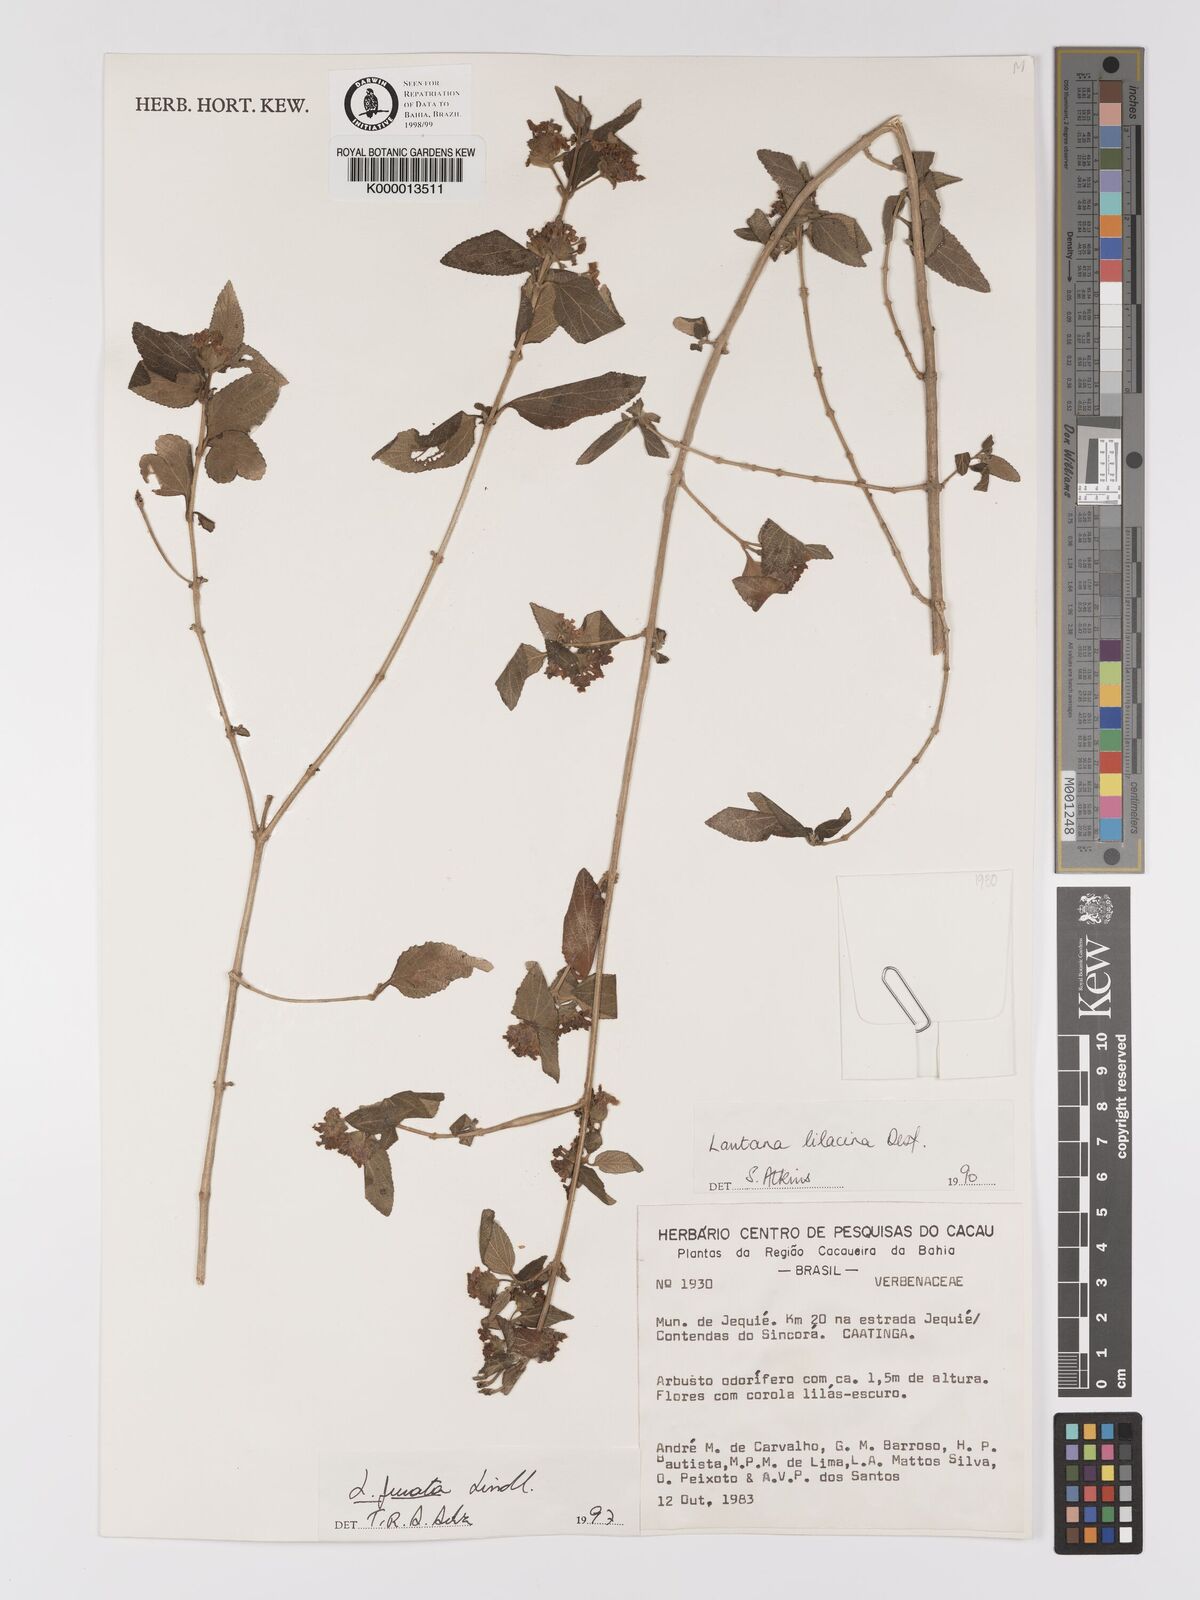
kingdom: Plantae
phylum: Tracheophyta
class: Magnoliopsida
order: Lamiales
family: Verbenaceae
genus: Lantana
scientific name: Lantana fucata
